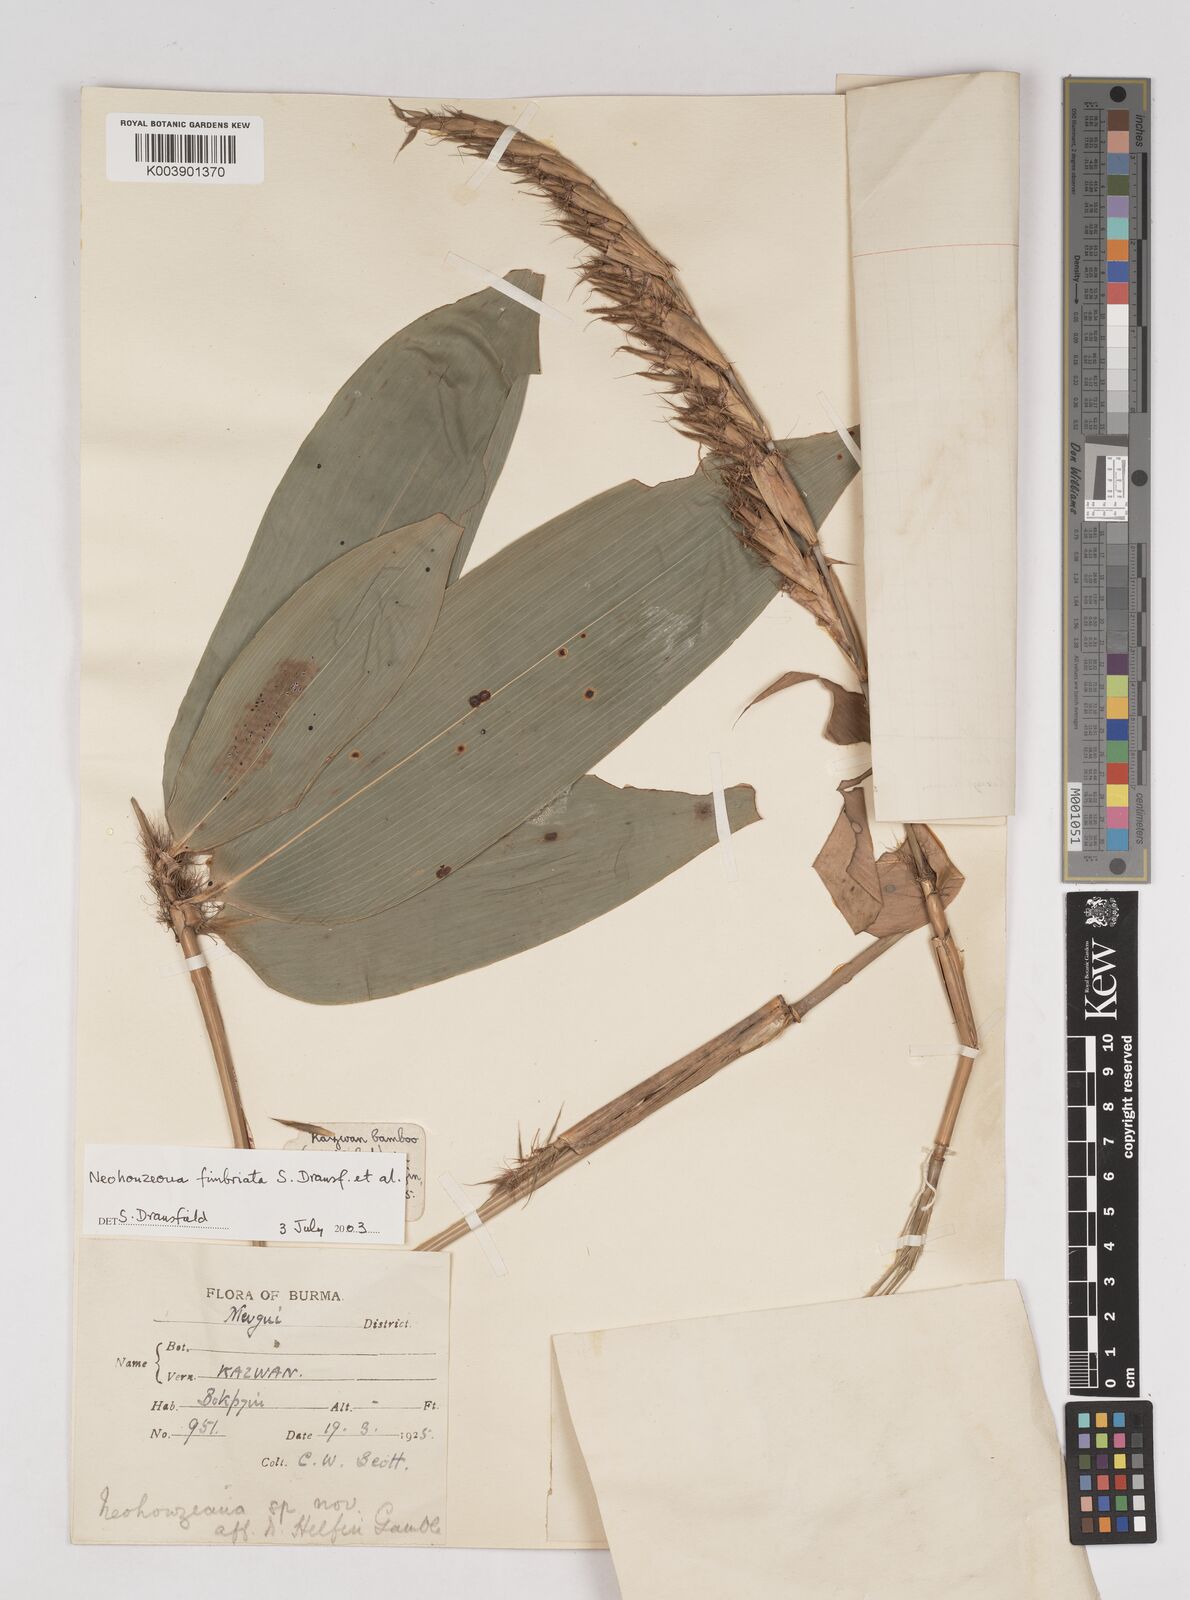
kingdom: Plantae
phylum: Tracheophyta
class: Liliopsida
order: Poales
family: Poaceae
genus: Schizostachyum
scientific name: Schizostachyum
